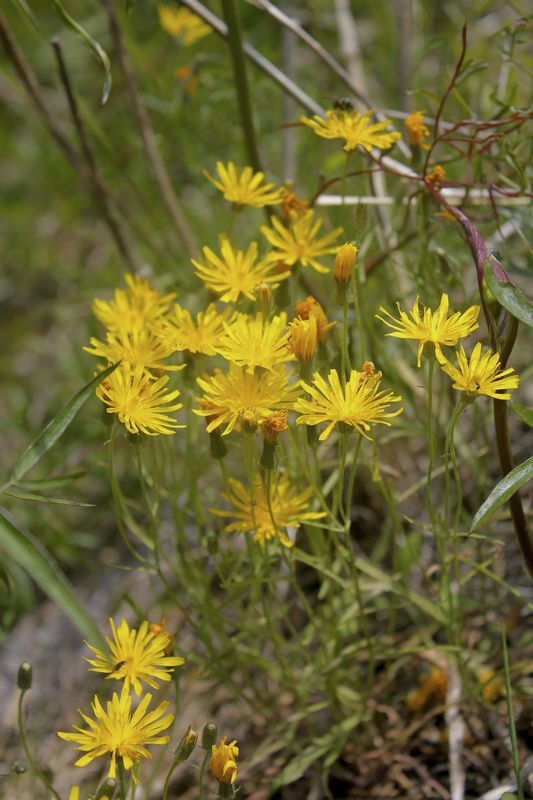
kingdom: Plantae
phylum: Tracheophyta
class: Magnoliopsida
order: Asterales
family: Asteraceae
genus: Crepis
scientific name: Crepis
